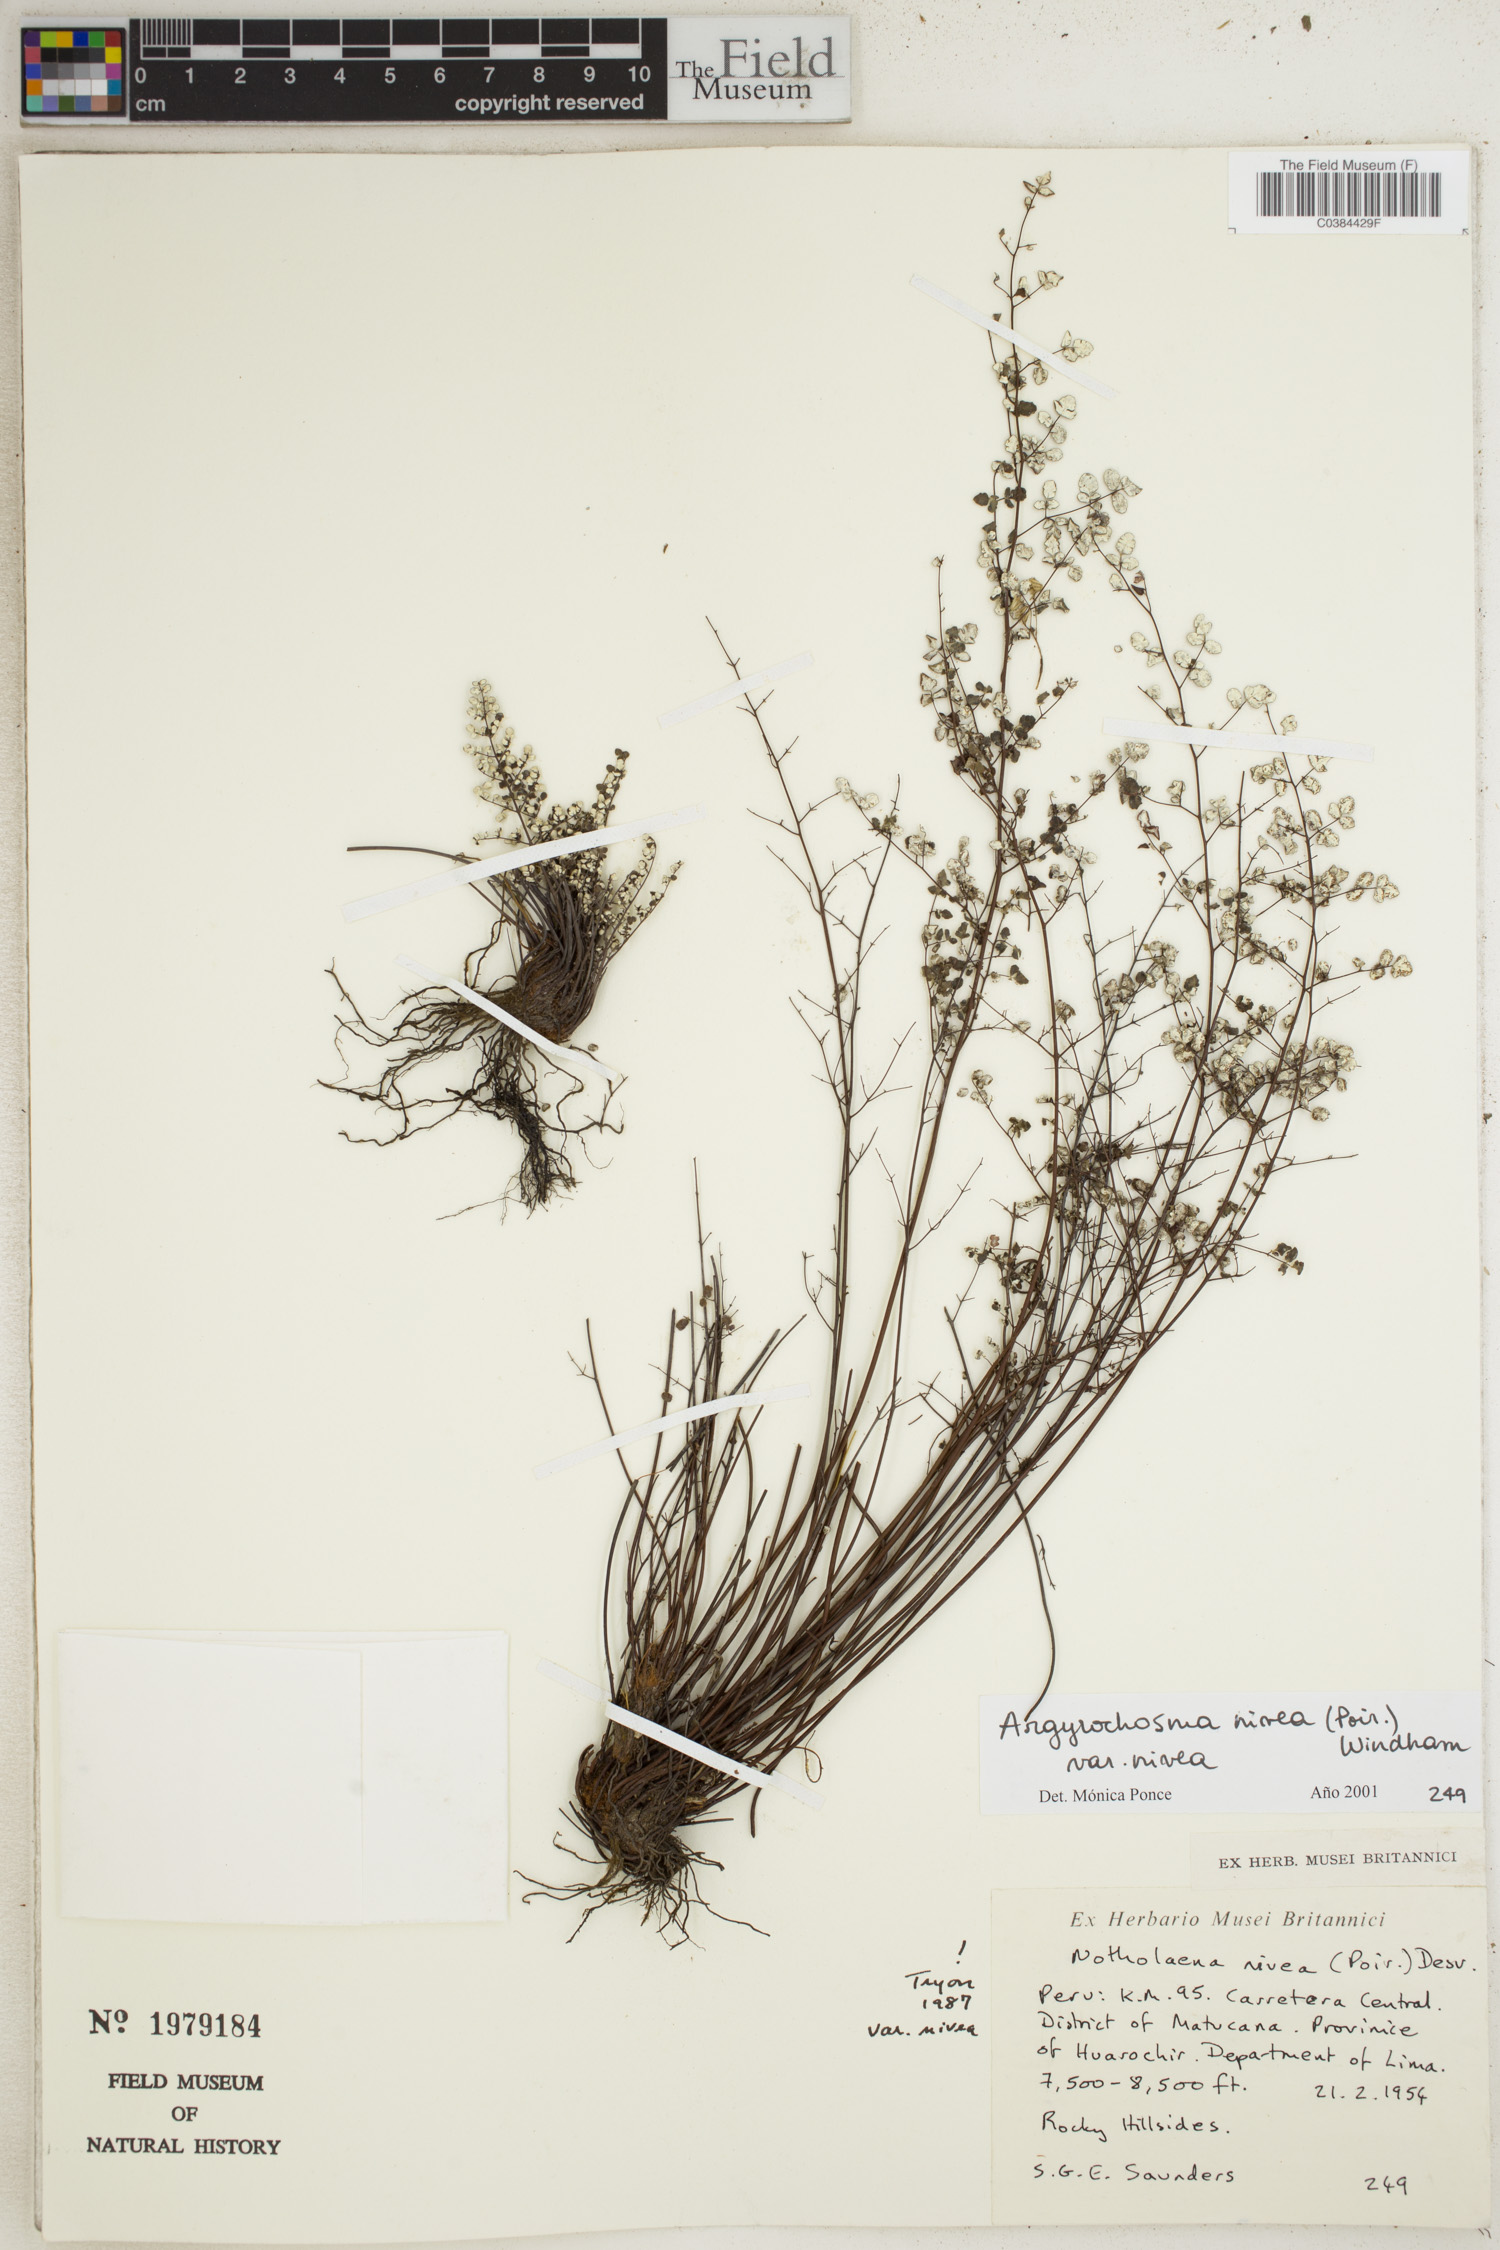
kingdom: Plantae
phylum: Tracheophyta
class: Polypodiopsida
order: Polypodiales
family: Pteridaceae
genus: Argyrochosma
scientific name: Argyrochosma nivea
